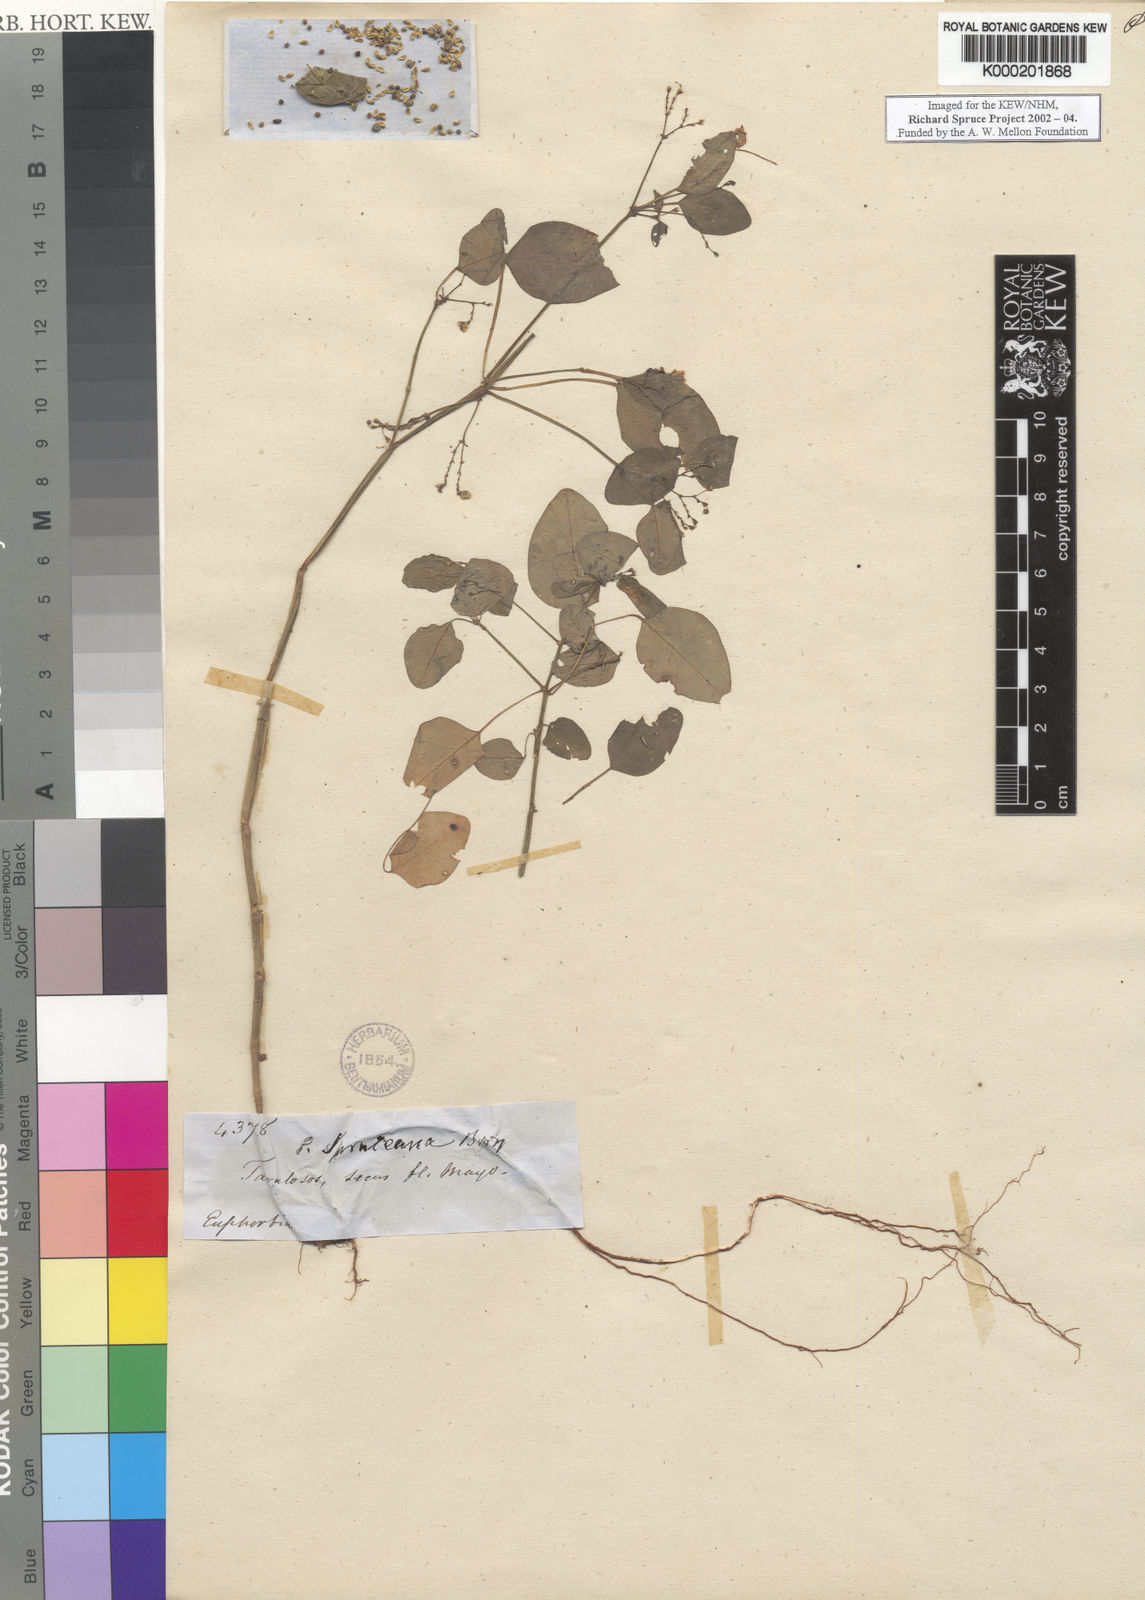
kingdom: Plantae
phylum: Tracheophyta
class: Magnoliopsida
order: Malpighiales
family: Euphorbiaceae
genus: Euphorbia
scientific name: Euphorbia spruceana
